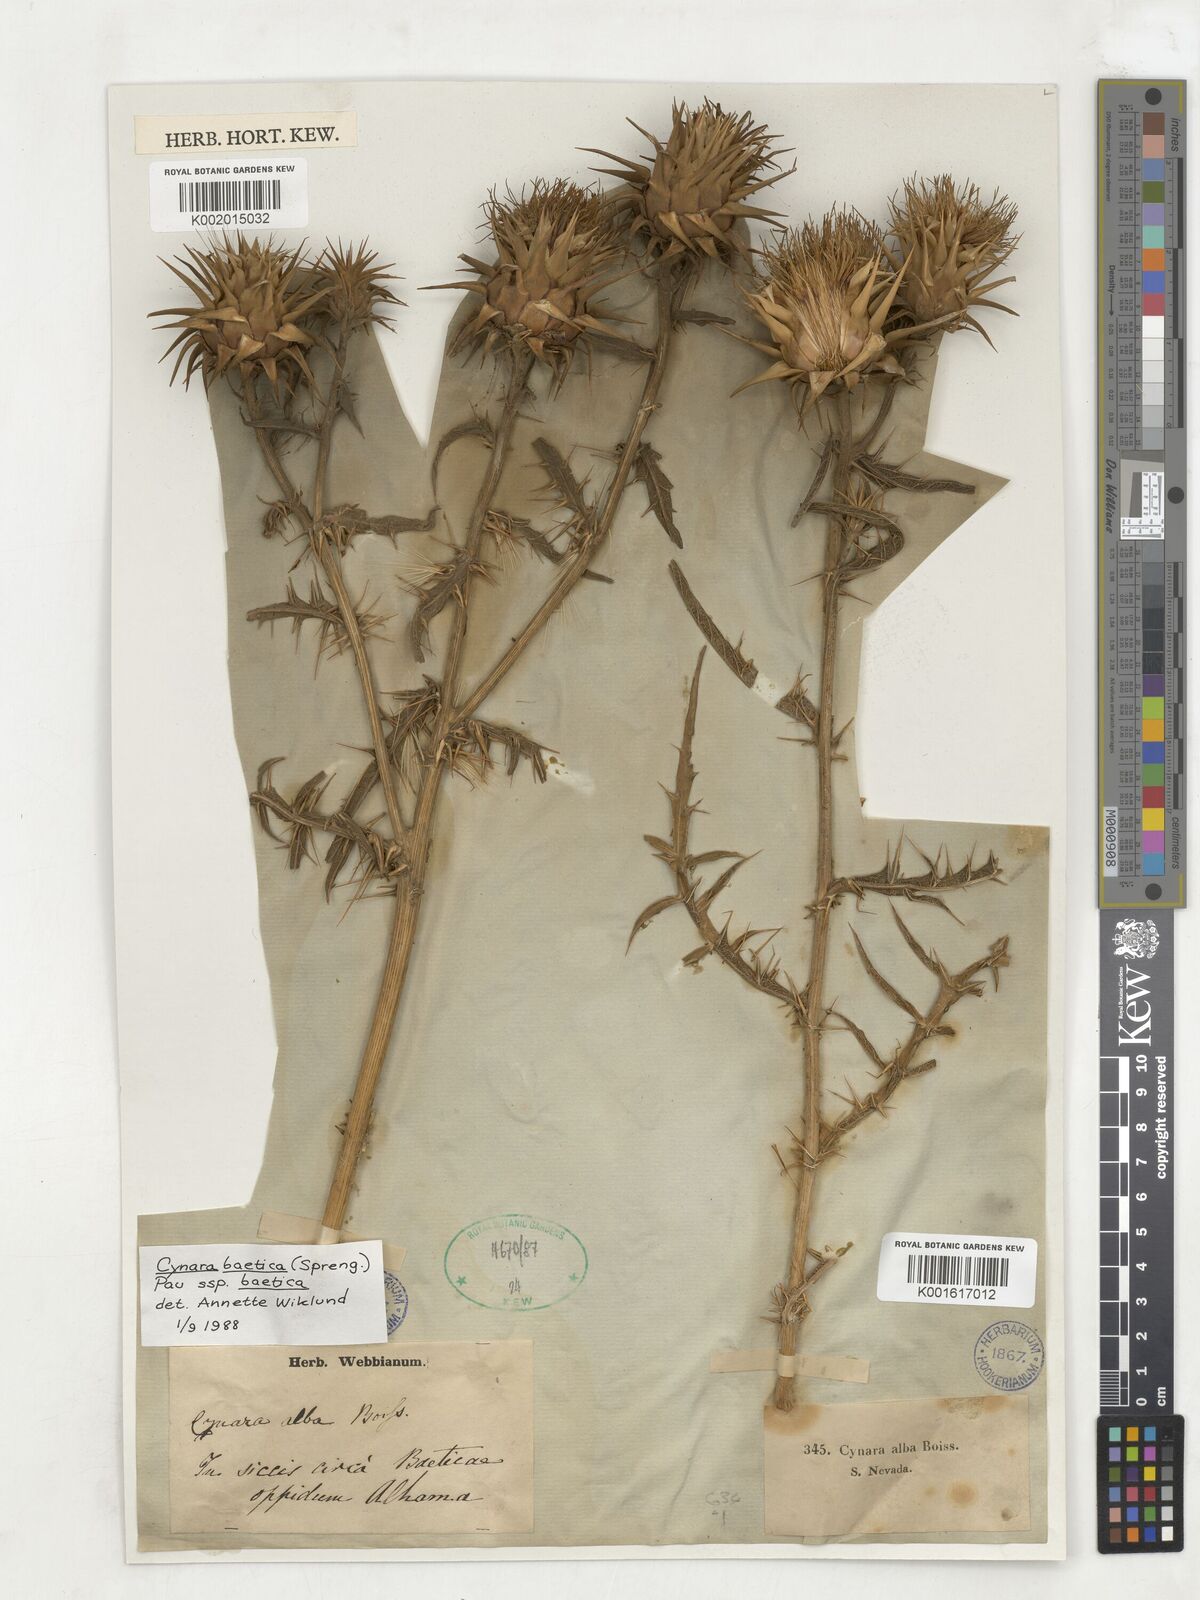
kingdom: Plantae
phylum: Tracheophyta
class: Magnoliopsida
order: Asterales
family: Asteraceae
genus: Cynara
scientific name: Cynara baetica
